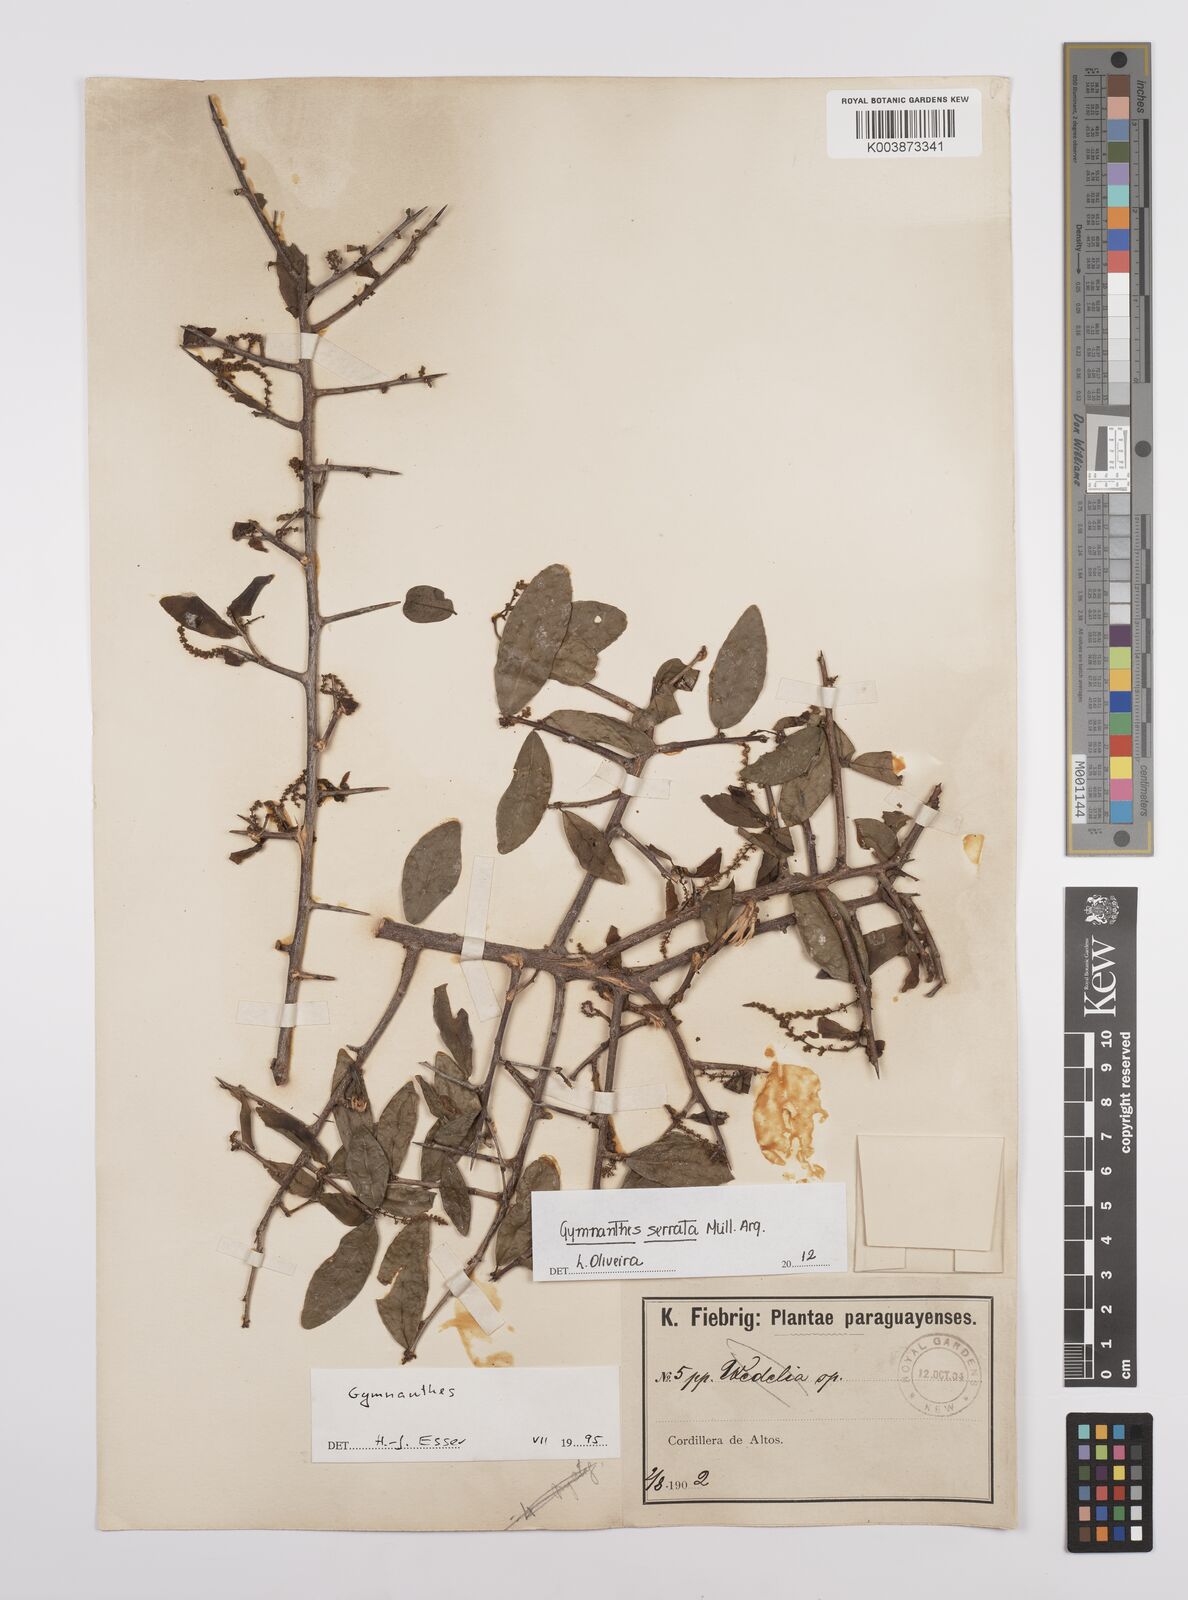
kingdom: Plantae
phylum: Tracheophyta
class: Magnoliopsida
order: Malpighiales
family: Euphorbiaceae
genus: Sebastiania
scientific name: Sebastiania serrata
